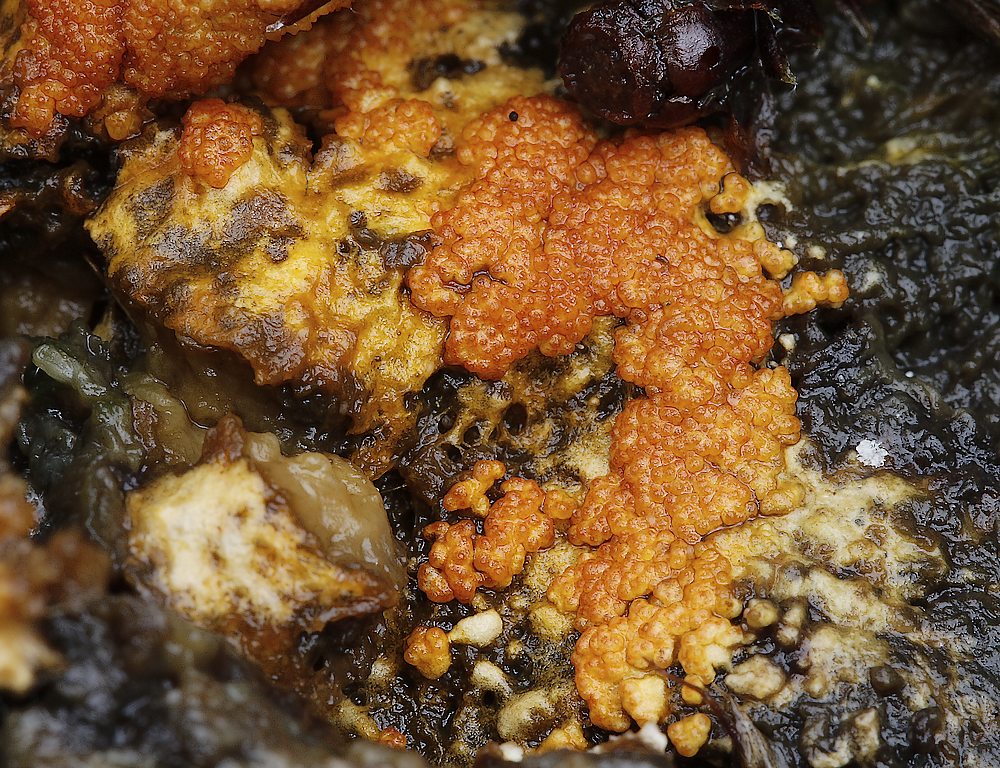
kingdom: Fungi
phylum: Ascomycota
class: Sordariomycetes
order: Hypocreales
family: Hypocreaceae
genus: Hypomyces
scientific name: Hypomyces
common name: snylteskorpe
